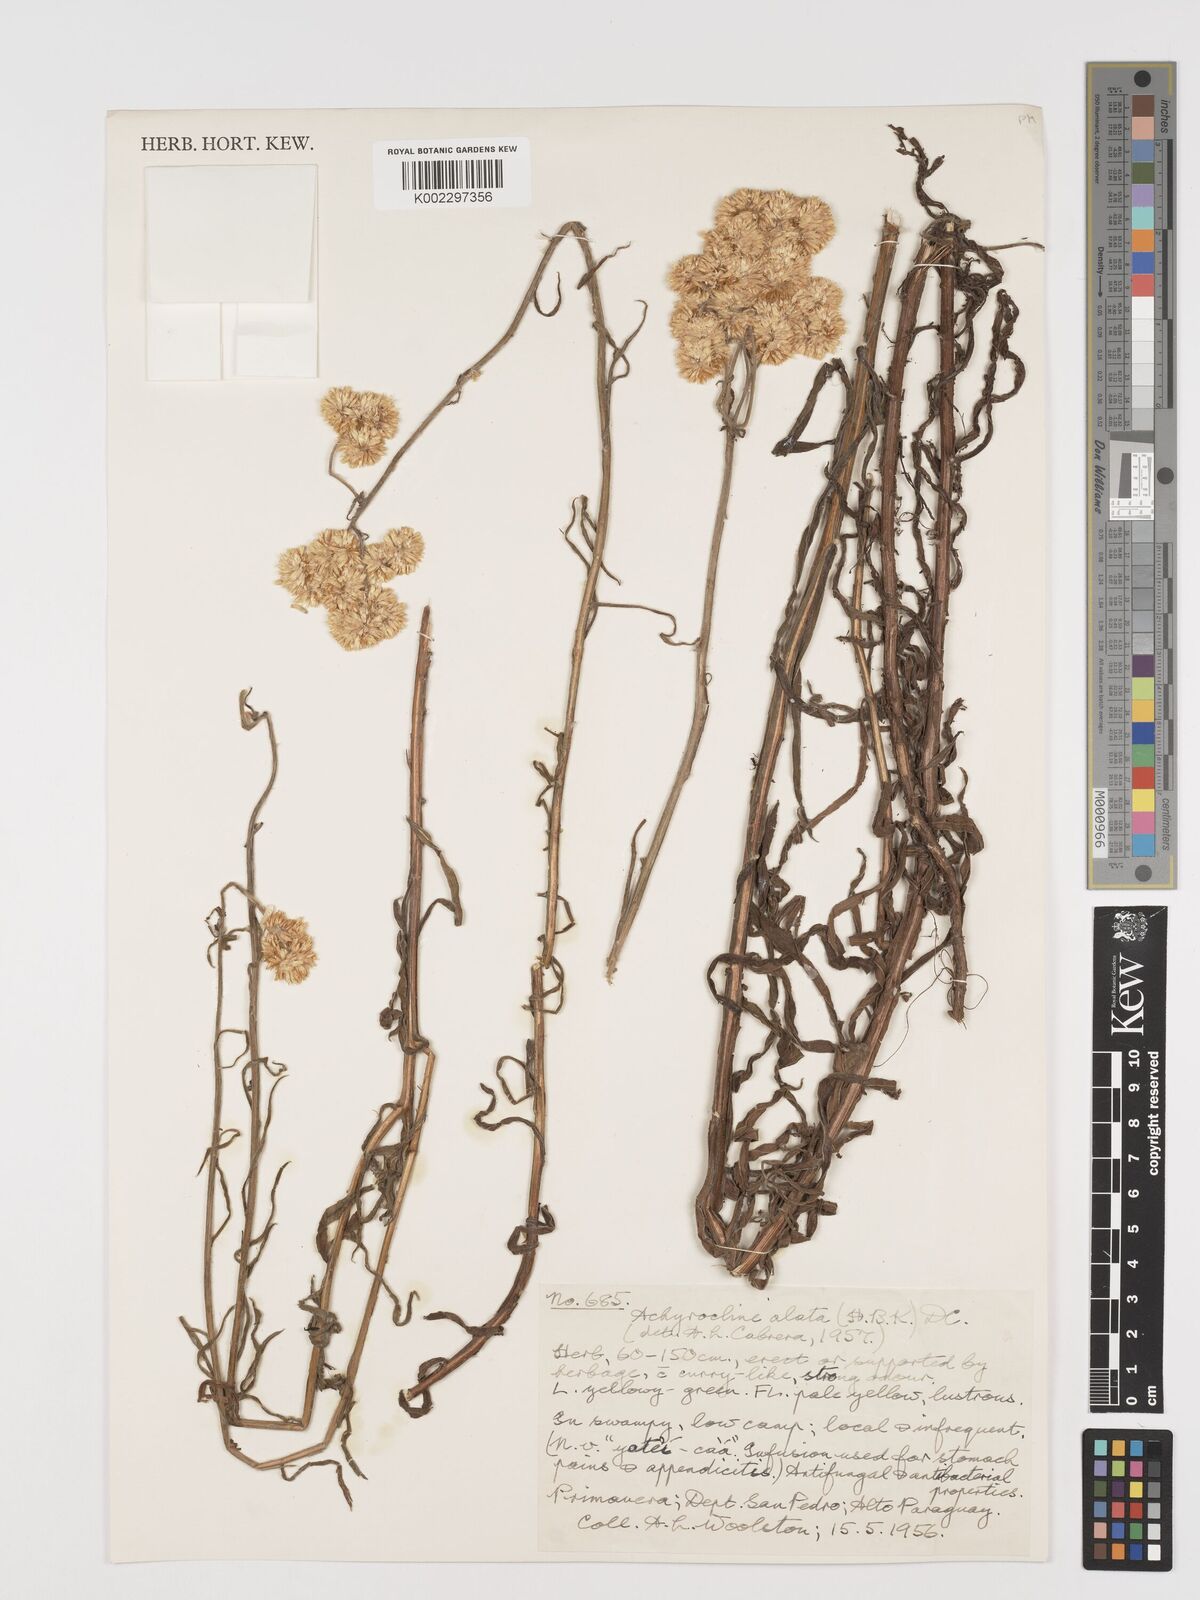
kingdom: Plantae
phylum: Tracheophyta
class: Magnoliopsida
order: Asterales
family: Asteraceae
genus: Achyrocline
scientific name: Achyrocline alata
